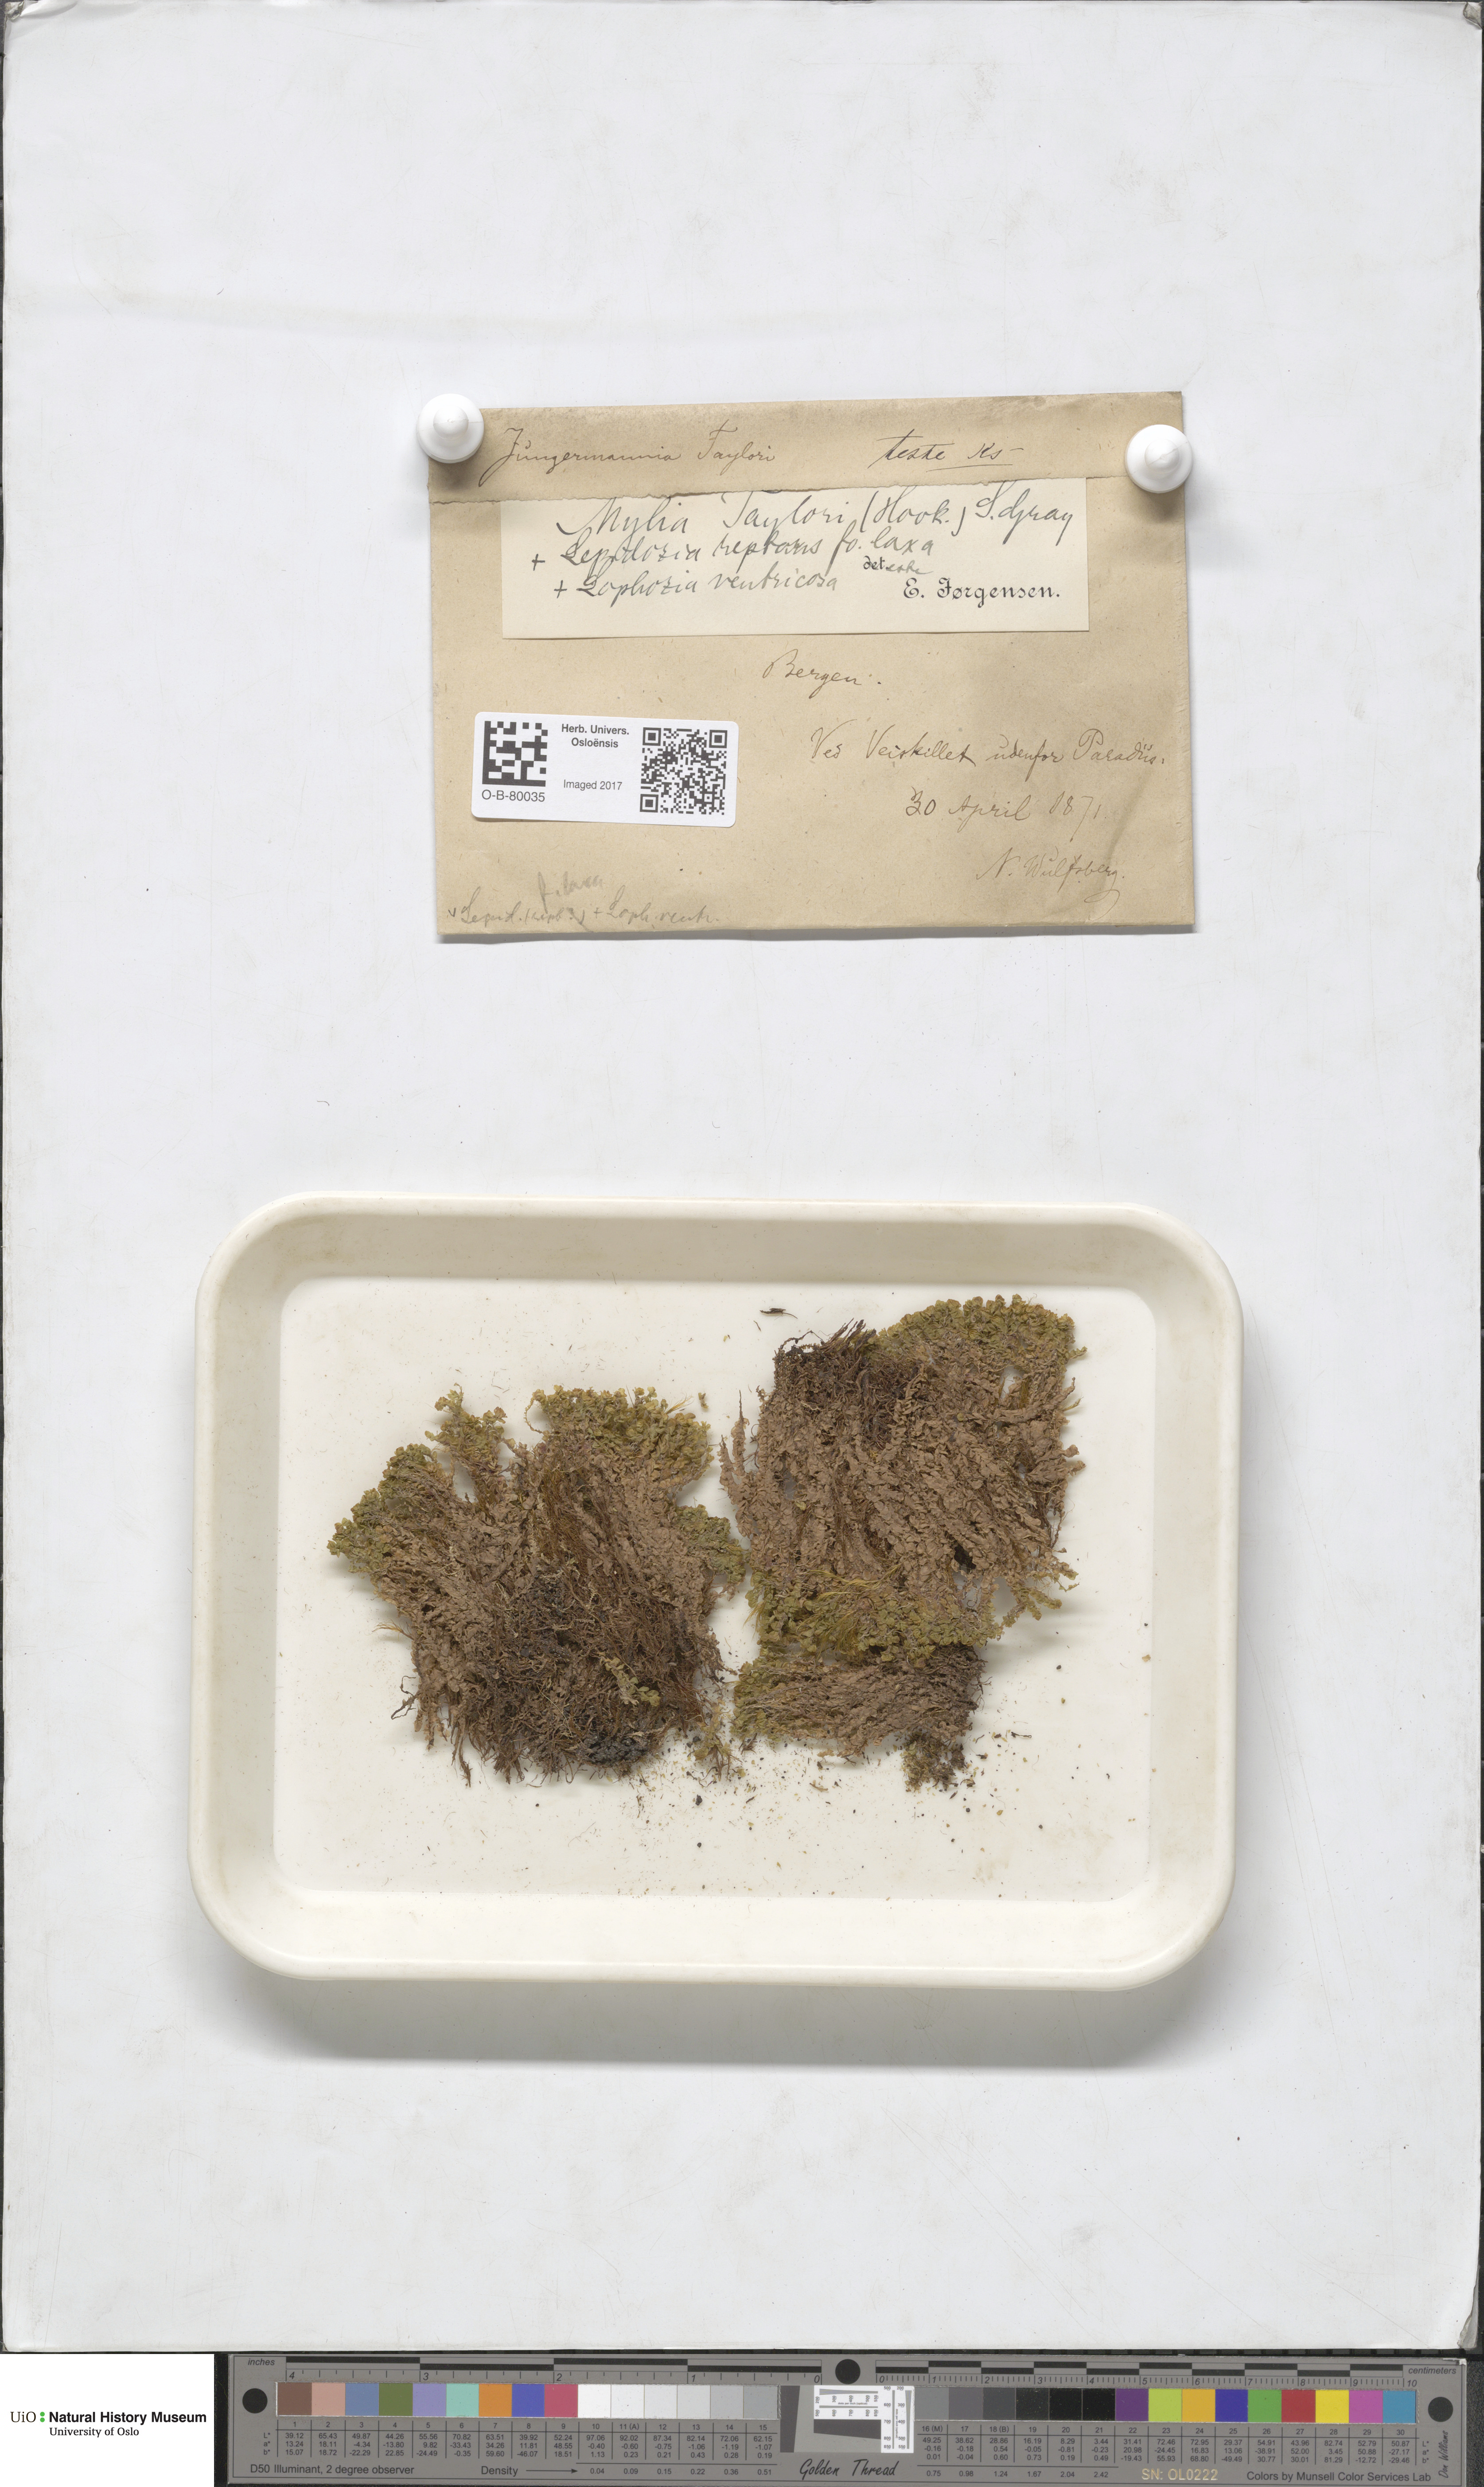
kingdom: Plantae
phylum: Marchantiophyta
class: Jungermanniopsida
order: Jungermanniales
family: Myliaceae
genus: Mylia
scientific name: Mylia taylorii
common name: Taylor s flapwort
